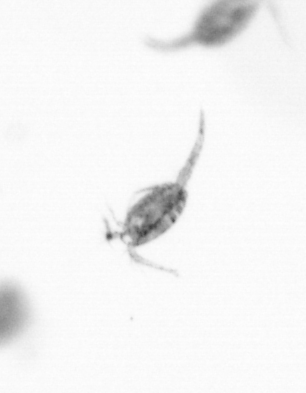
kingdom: Animalia
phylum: Arthropoda
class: Copepoda
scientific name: Copepoda
